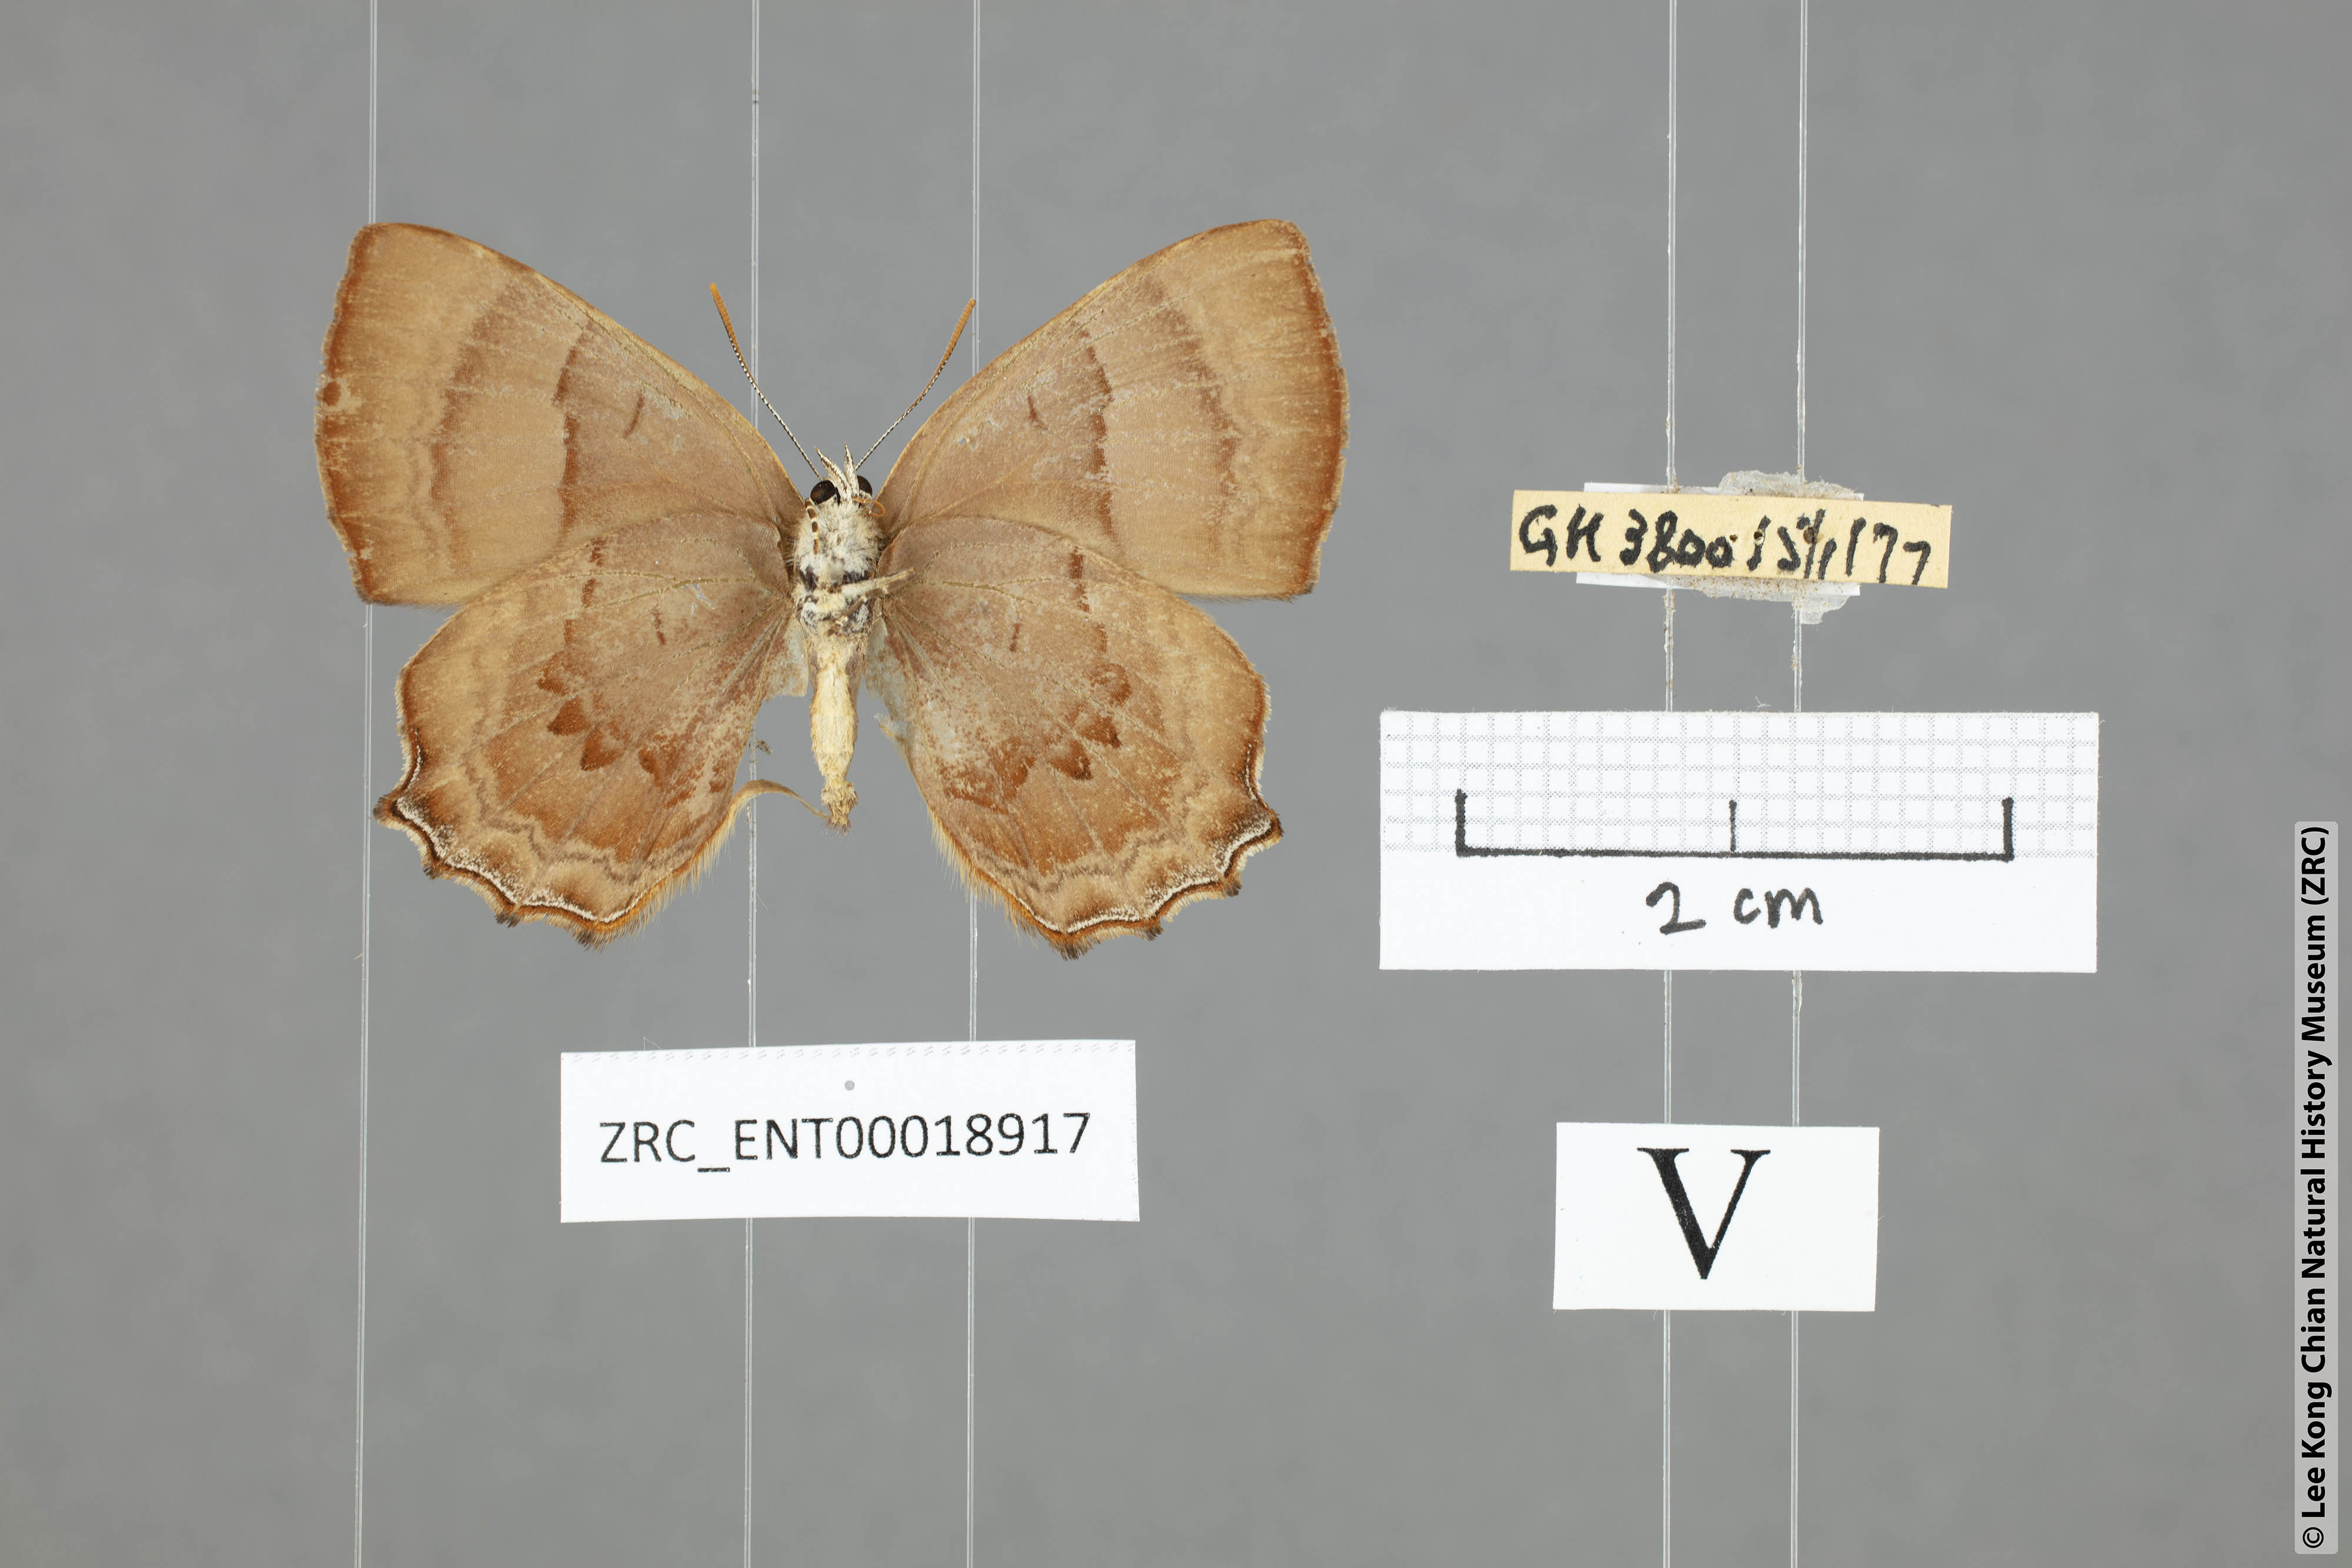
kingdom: Animalia
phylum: Arthropoda
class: Insecta
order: Lepidoptera
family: Lycaenidae
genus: Poritia
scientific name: Poritia proxina
